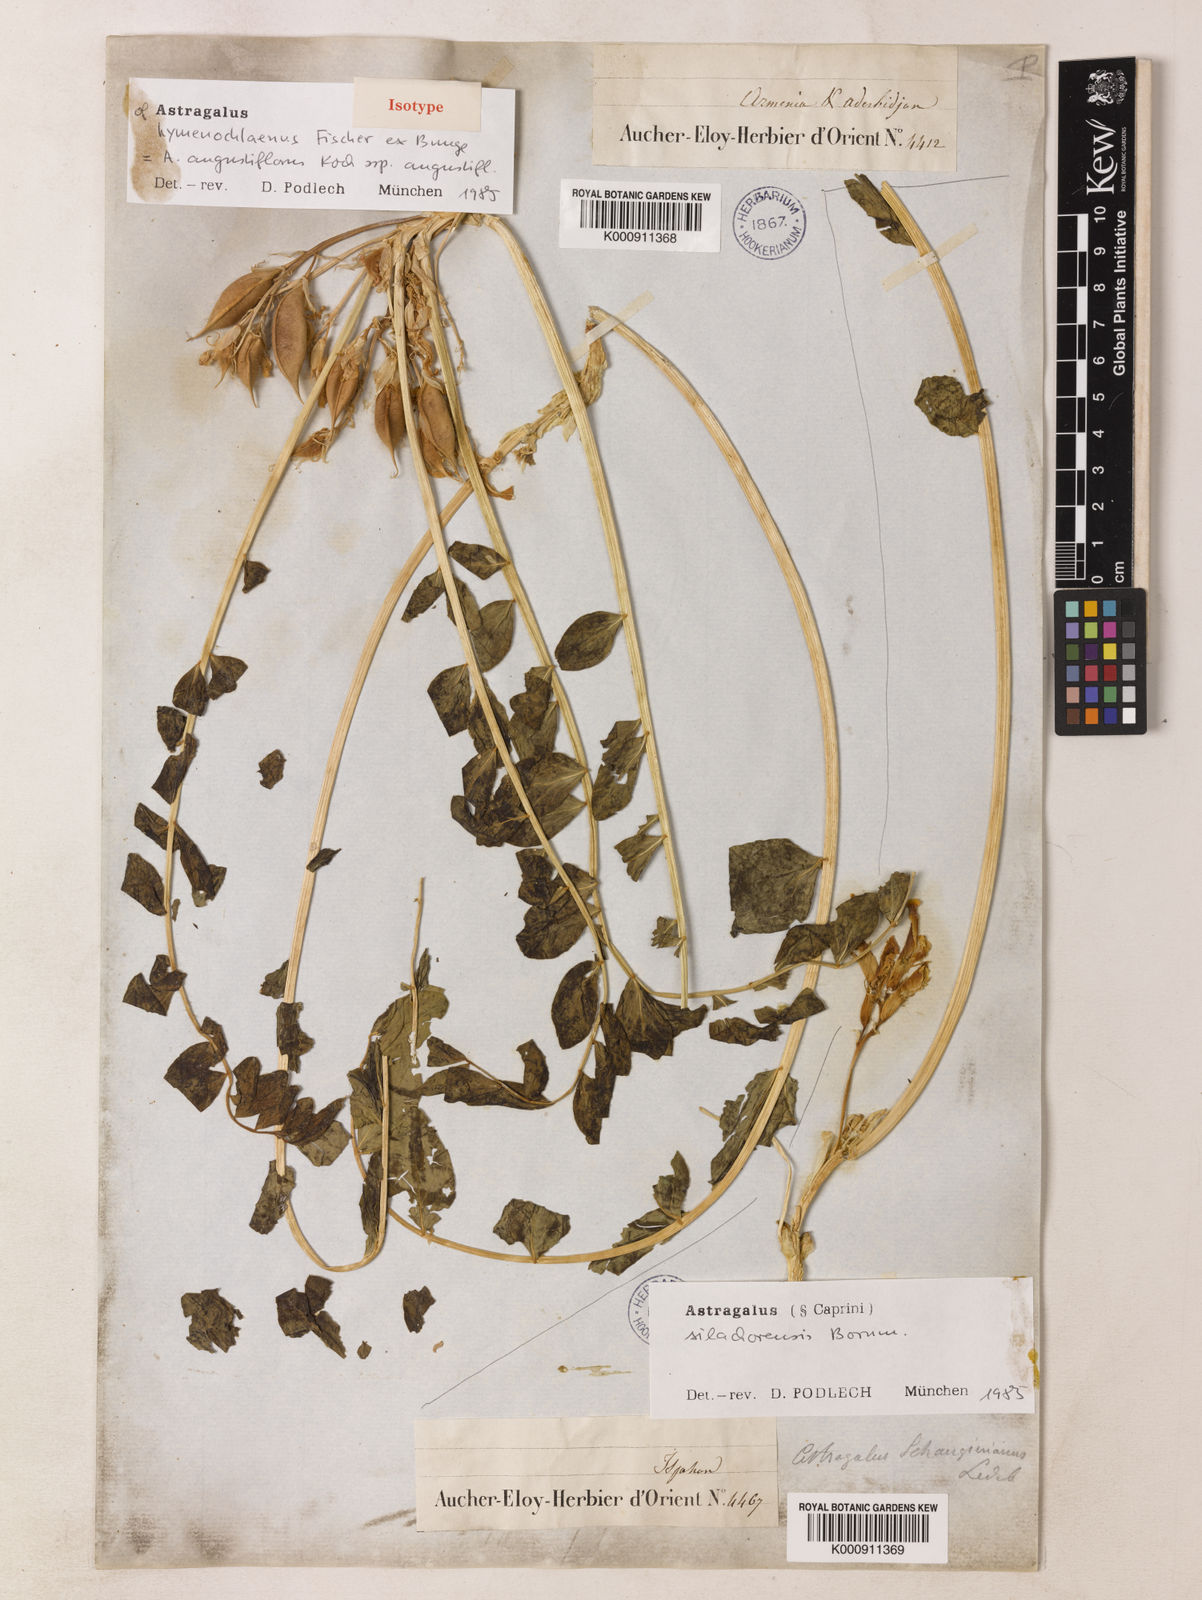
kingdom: Plantae
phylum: Tracheophyta
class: Magnoliopsida
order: Fabales
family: Fabaceae
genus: Astragalus
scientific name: Astragalus angustiflorus
